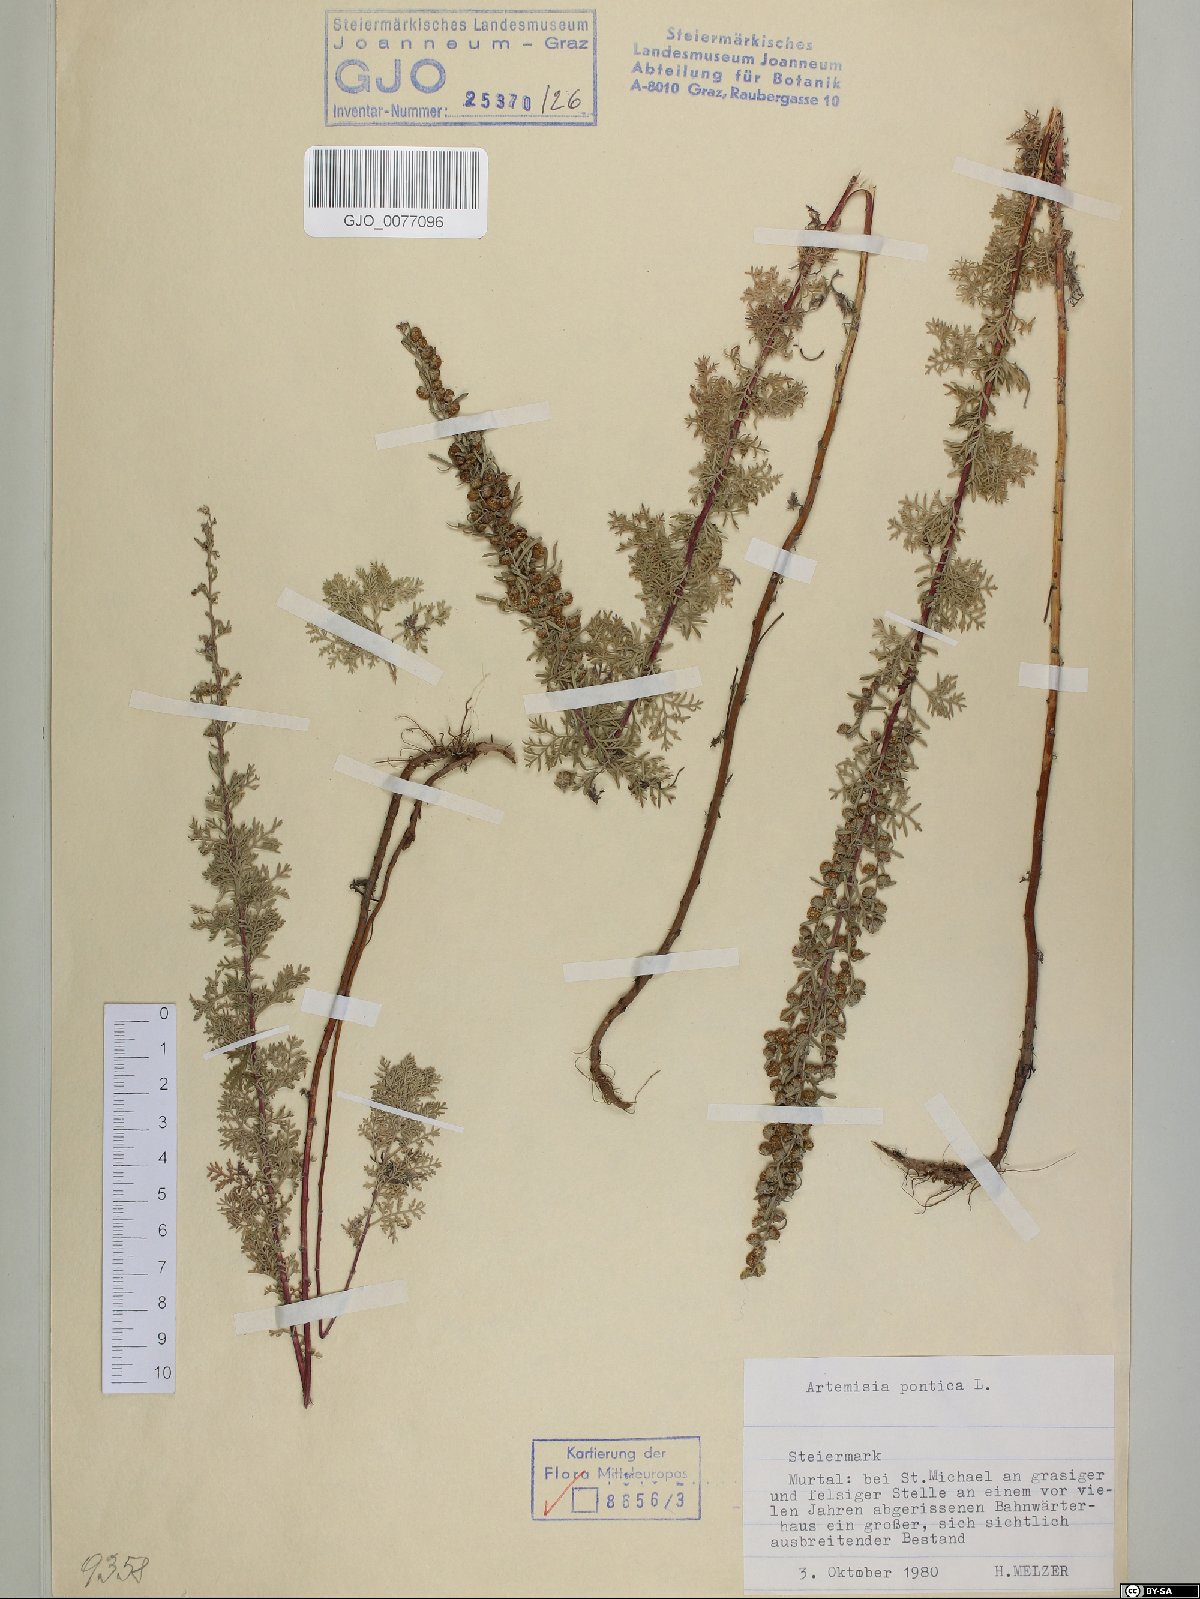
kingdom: Plantae
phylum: Tracheophyta
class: Magnoliopsida
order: Asterales
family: Asteraceae
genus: Artemisia
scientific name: Artemisia pontica
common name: Roman wormwood
